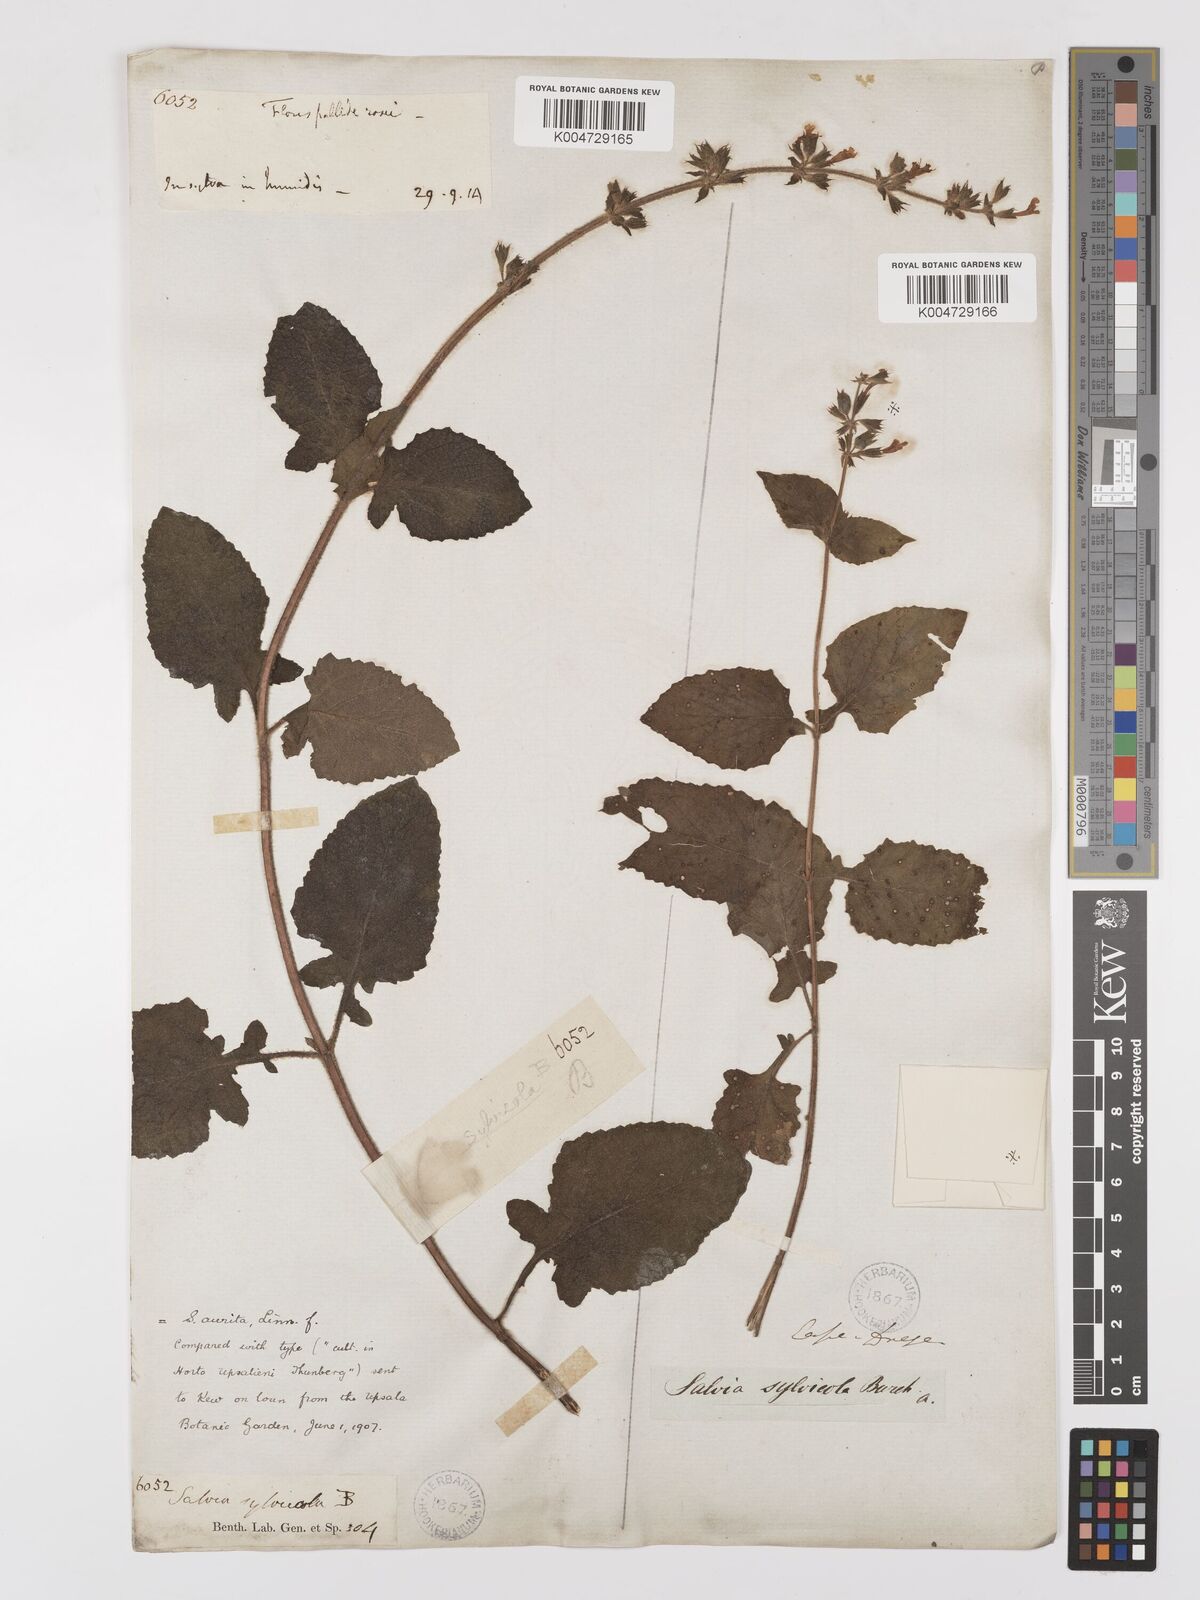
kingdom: Plantae
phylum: Tracheophyta
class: Magnoliopsida
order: Lamiales
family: Lamiaceae
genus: Salvia
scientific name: Salvia aurita
